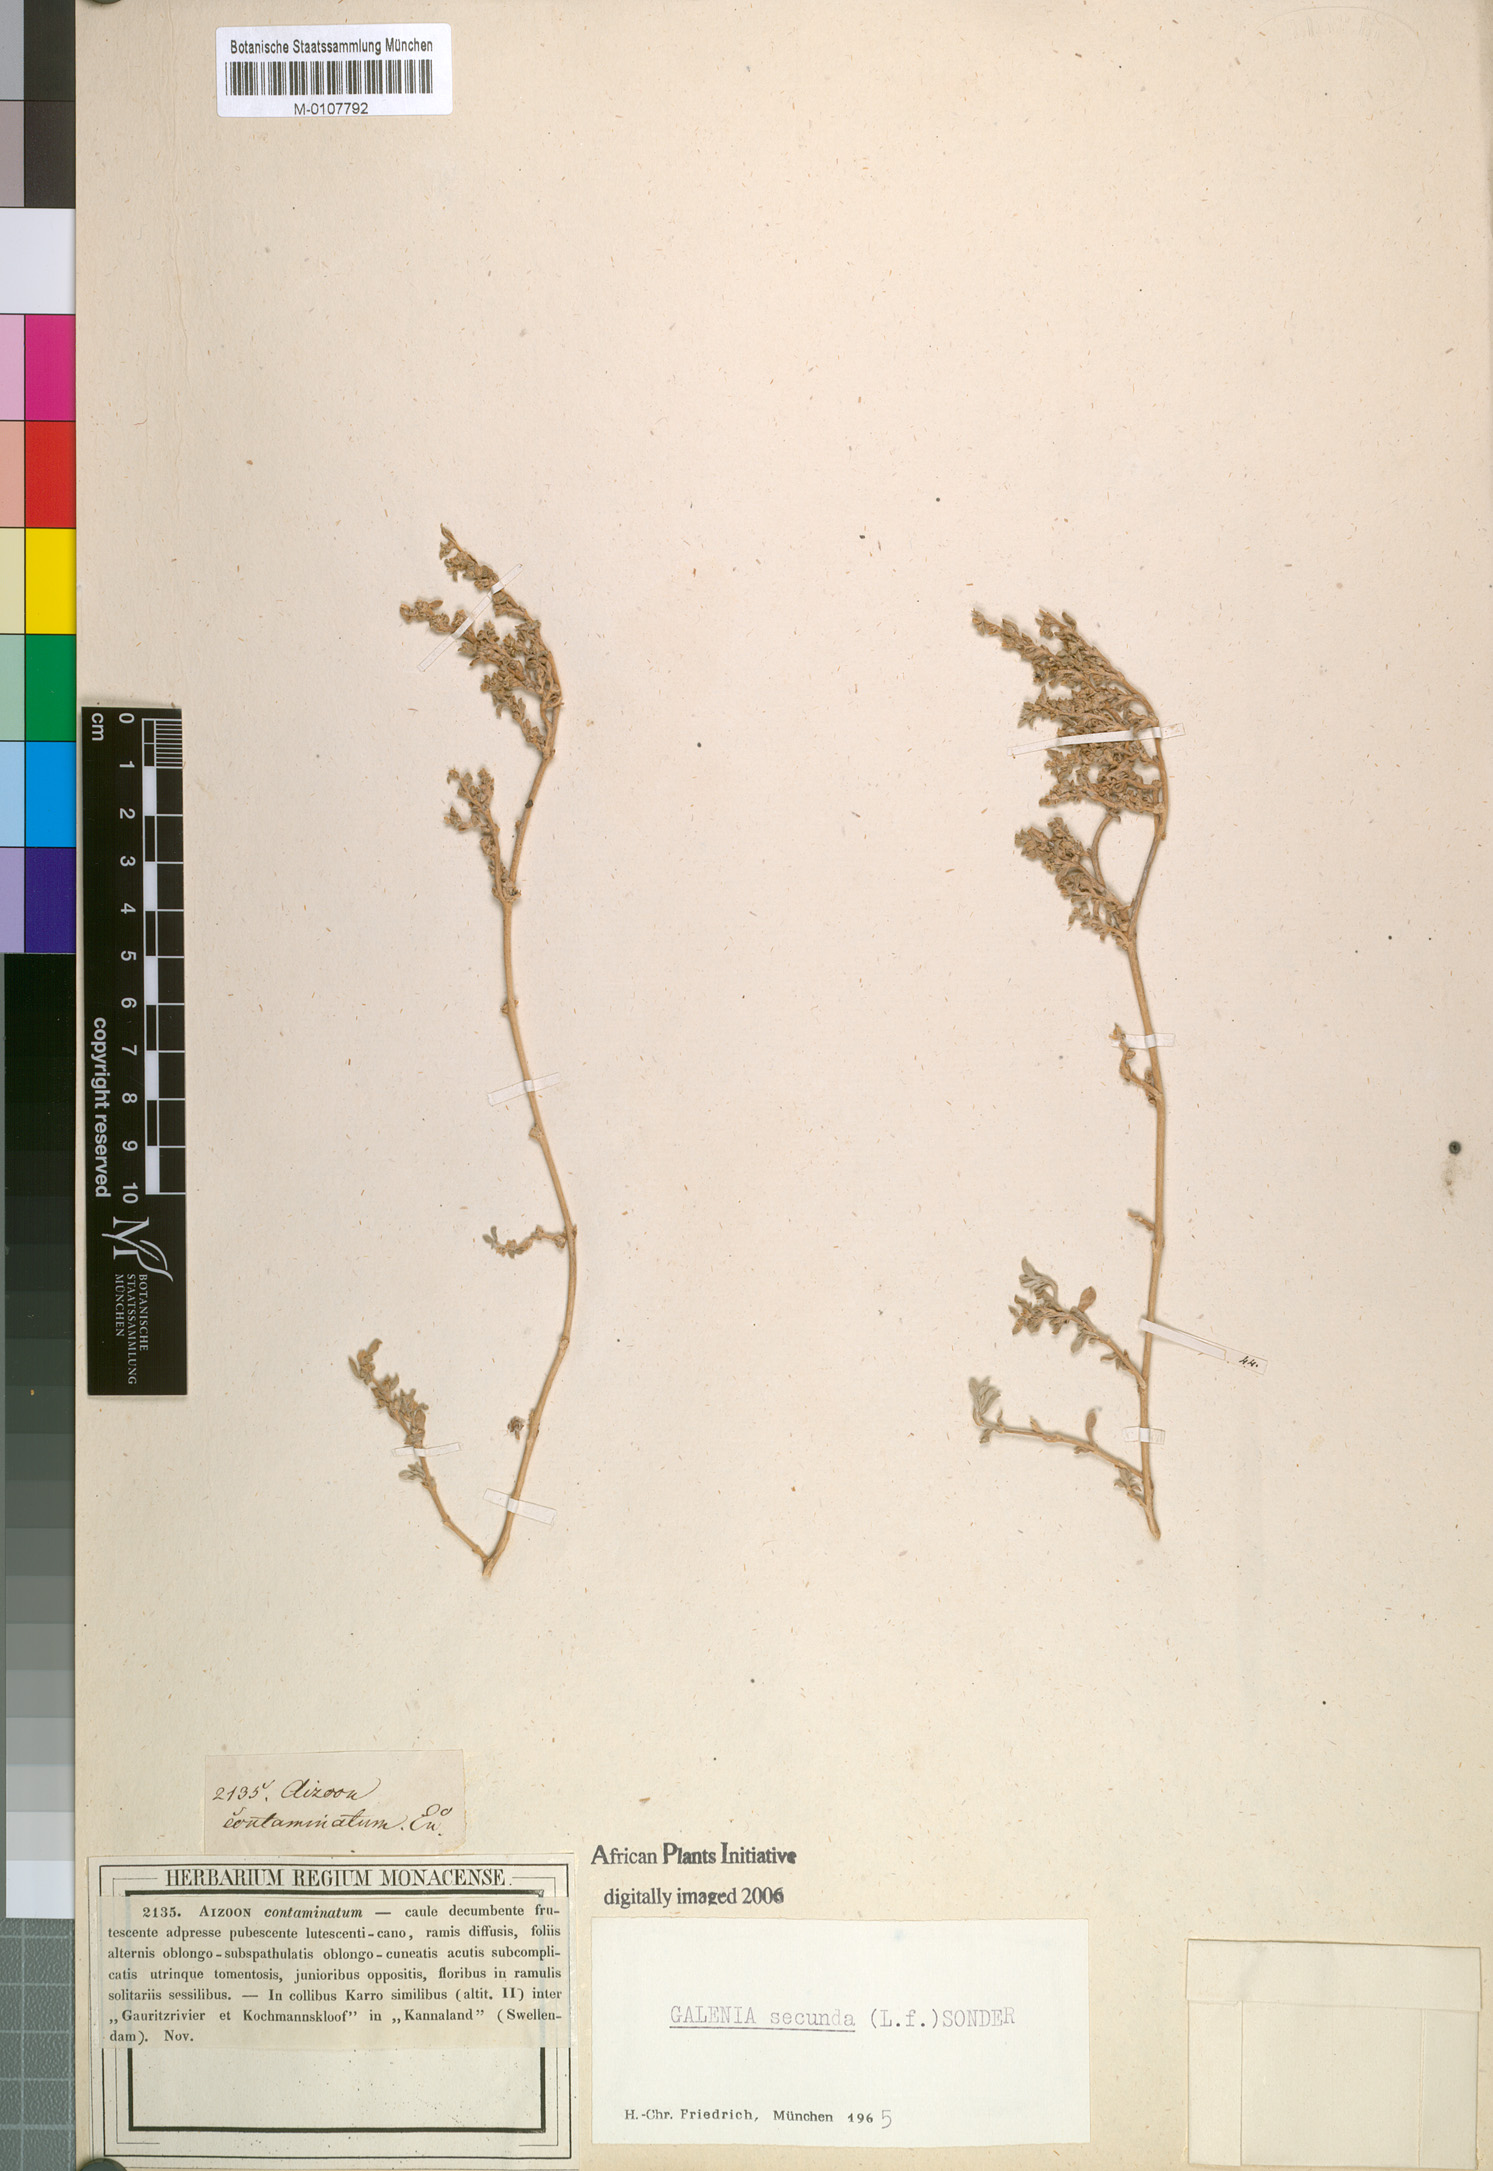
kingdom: Plantae
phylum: Tracheophyta
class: Magnoliopsida
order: Caryophyllales
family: Aizoaceae
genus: Aizoon
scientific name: Aizoon secundum
